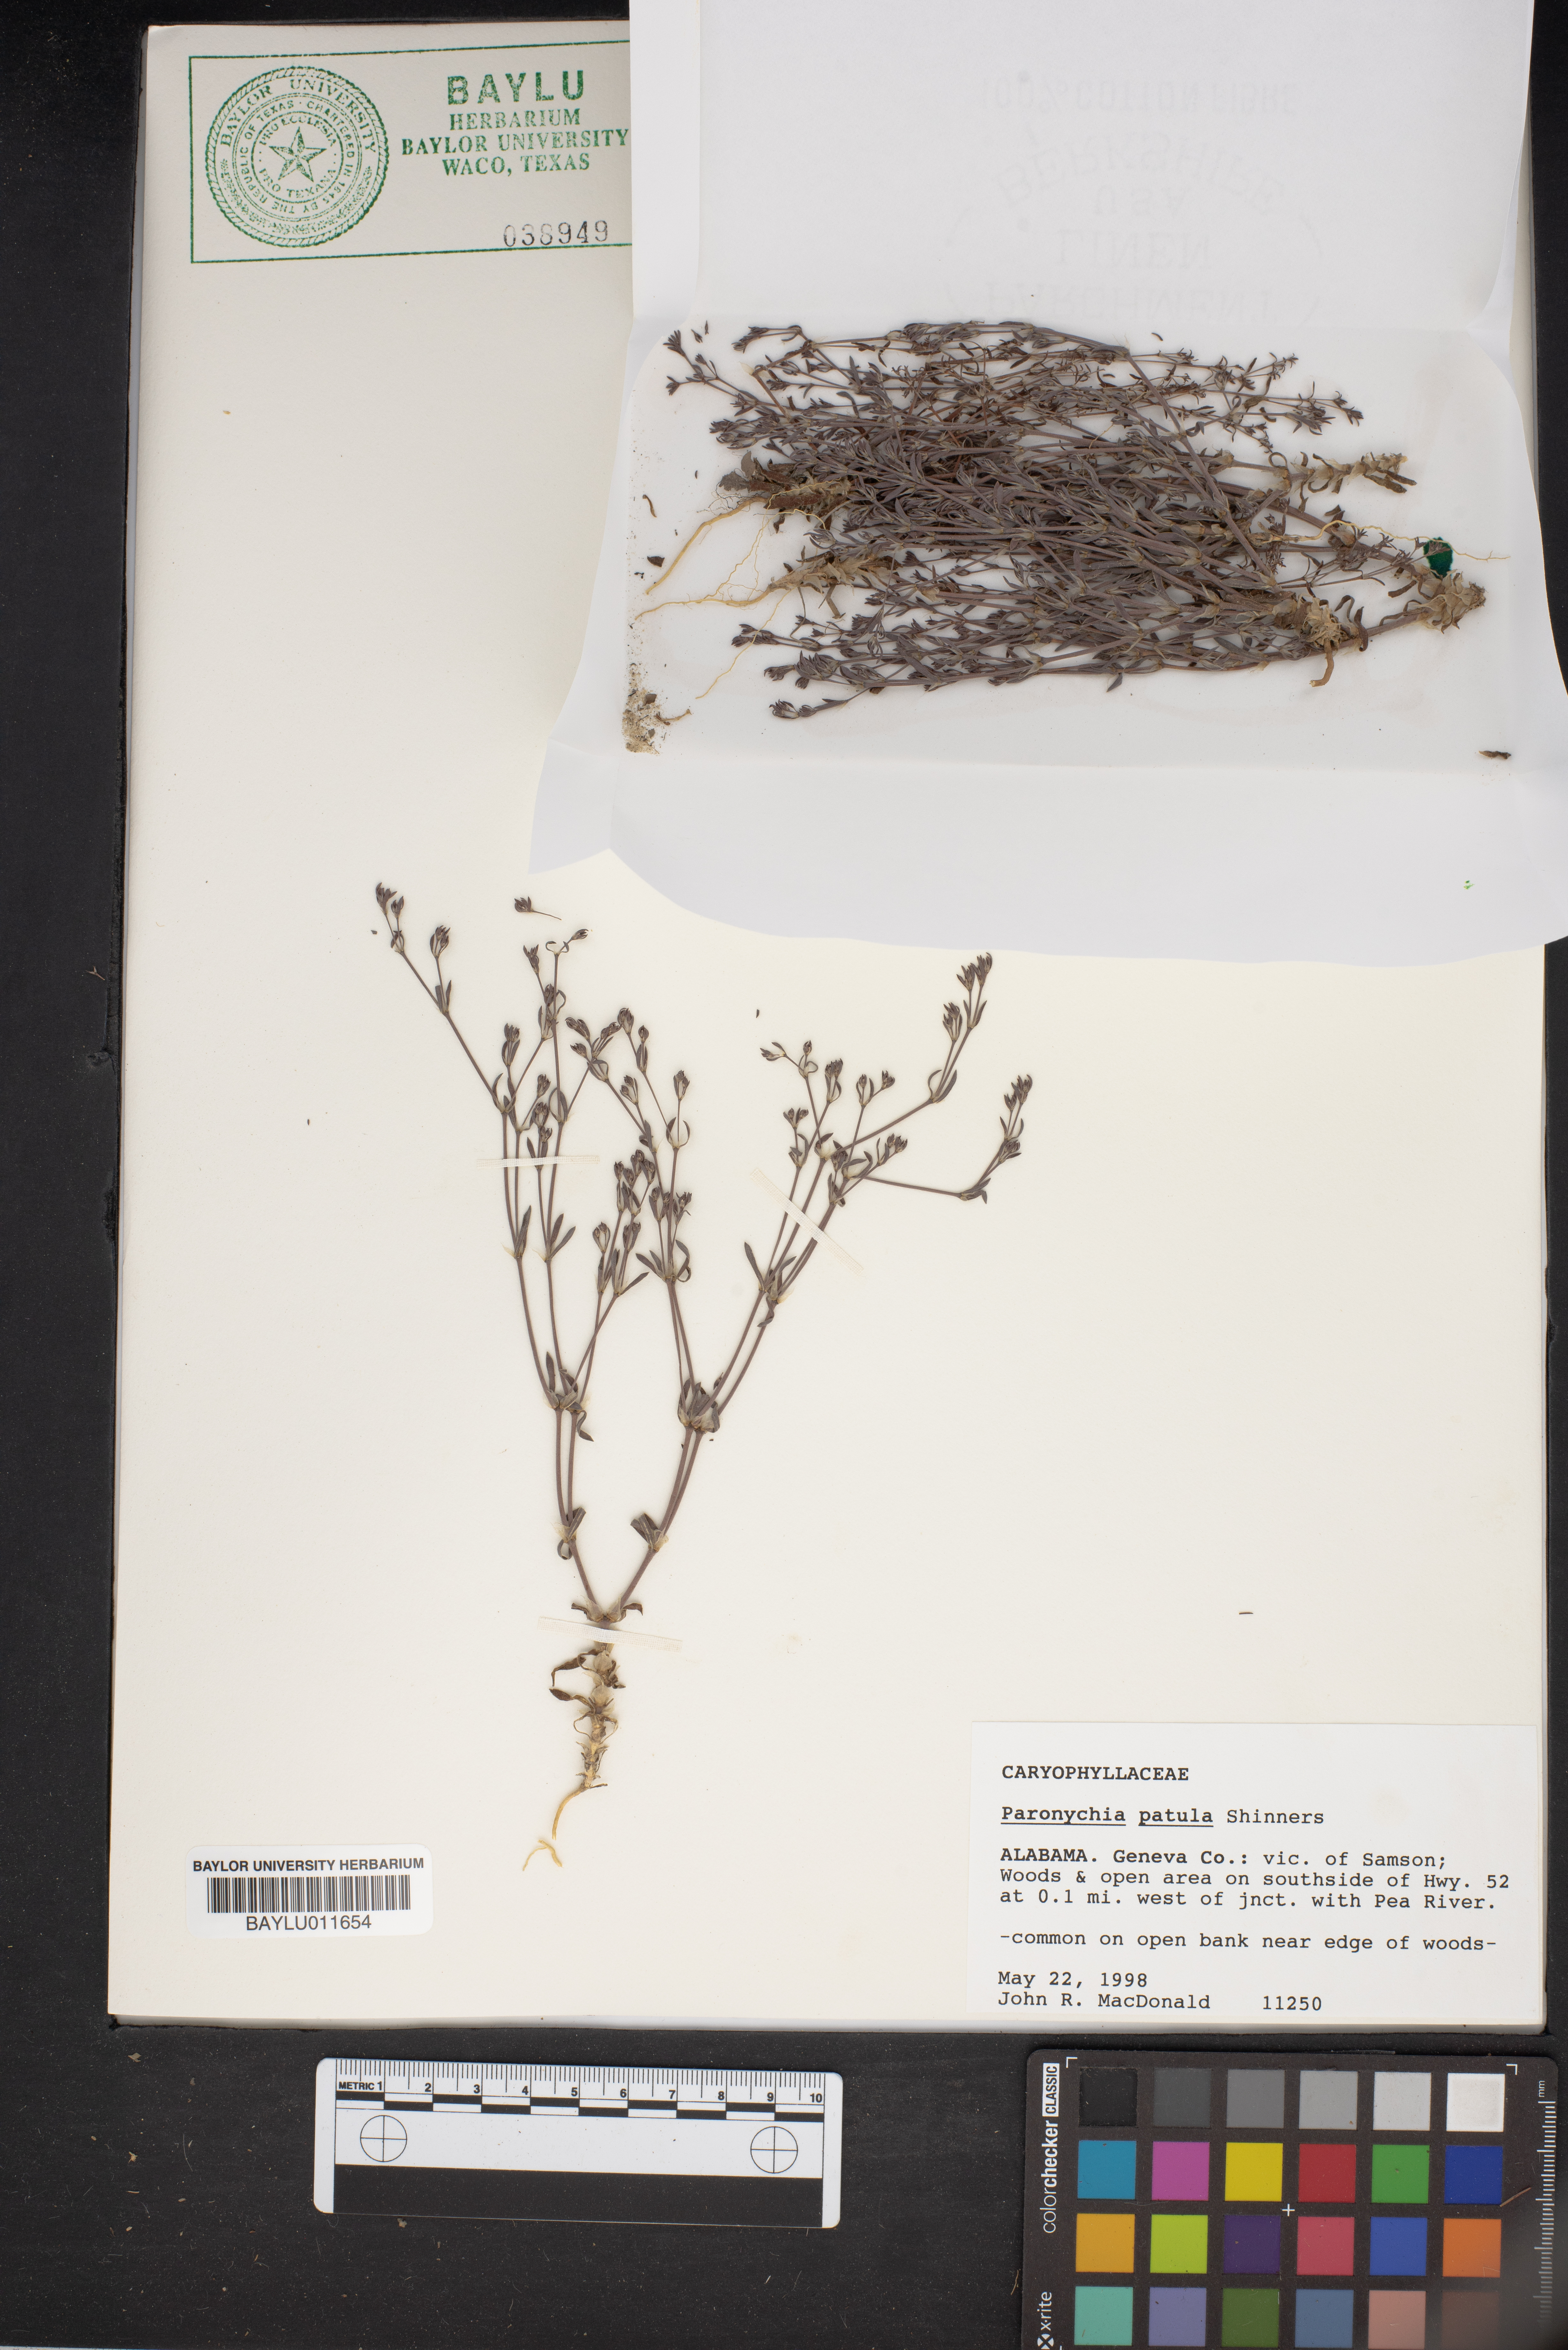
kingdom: Plantae
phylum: Tracheophyta
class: Magnoliopsida
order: Caryophyllales
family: Caryophyllaceae
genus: Paronychia
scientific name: Paronychia patula
